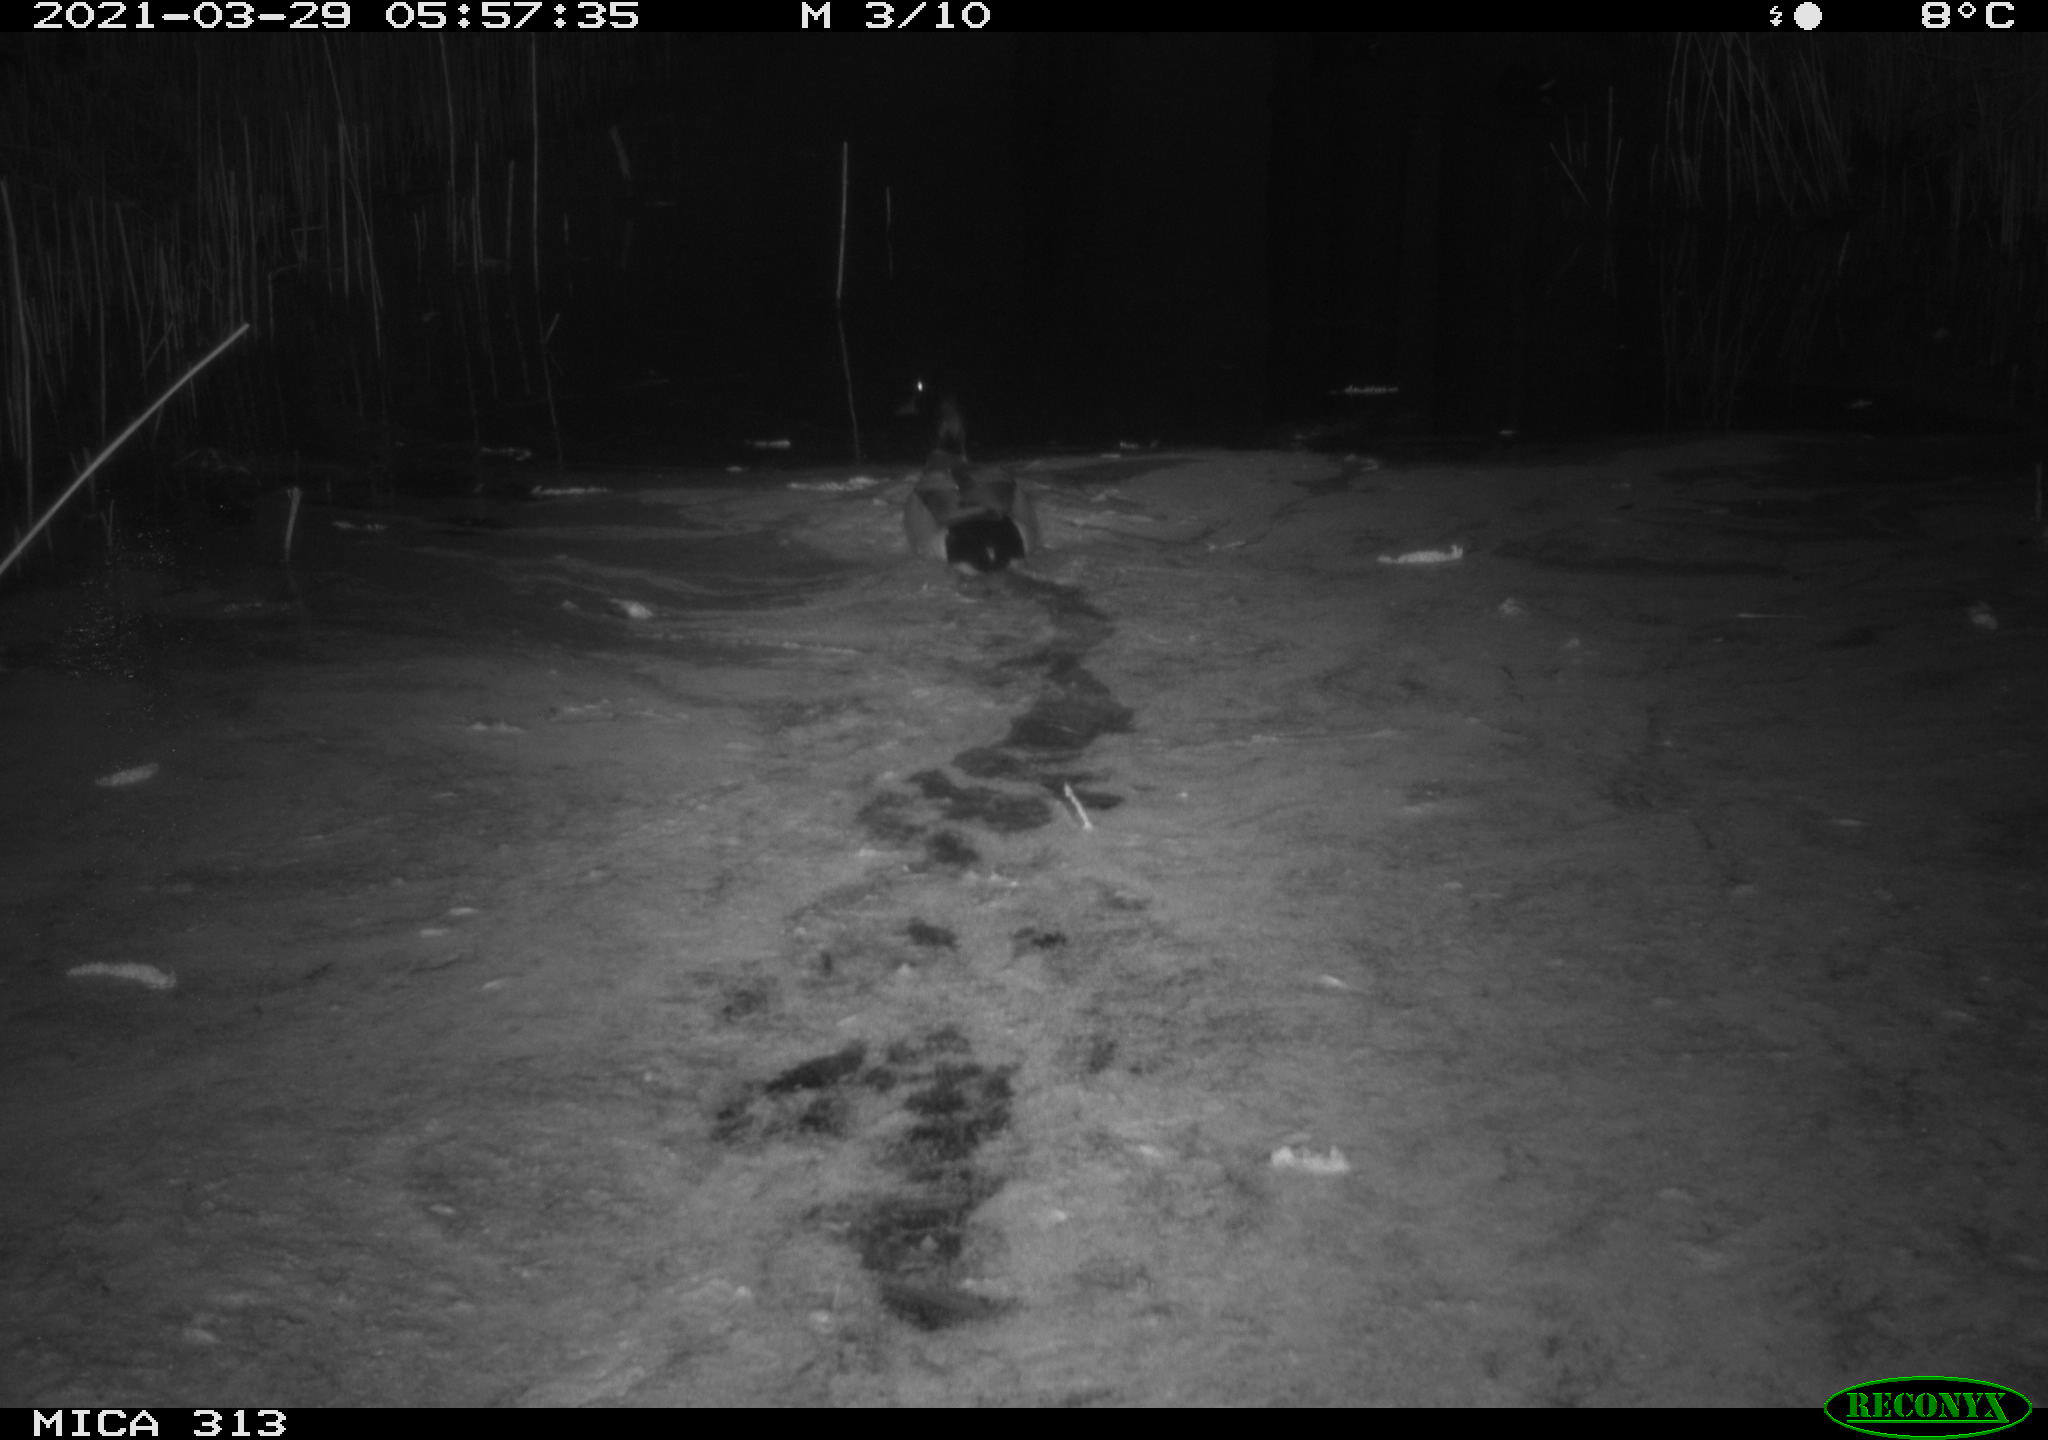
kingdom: Animalia
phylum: Chordata
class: Aves
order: Anseriformes
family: Anatidae
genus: Anas
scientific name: Anas platyrhynchos
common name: Mallard
